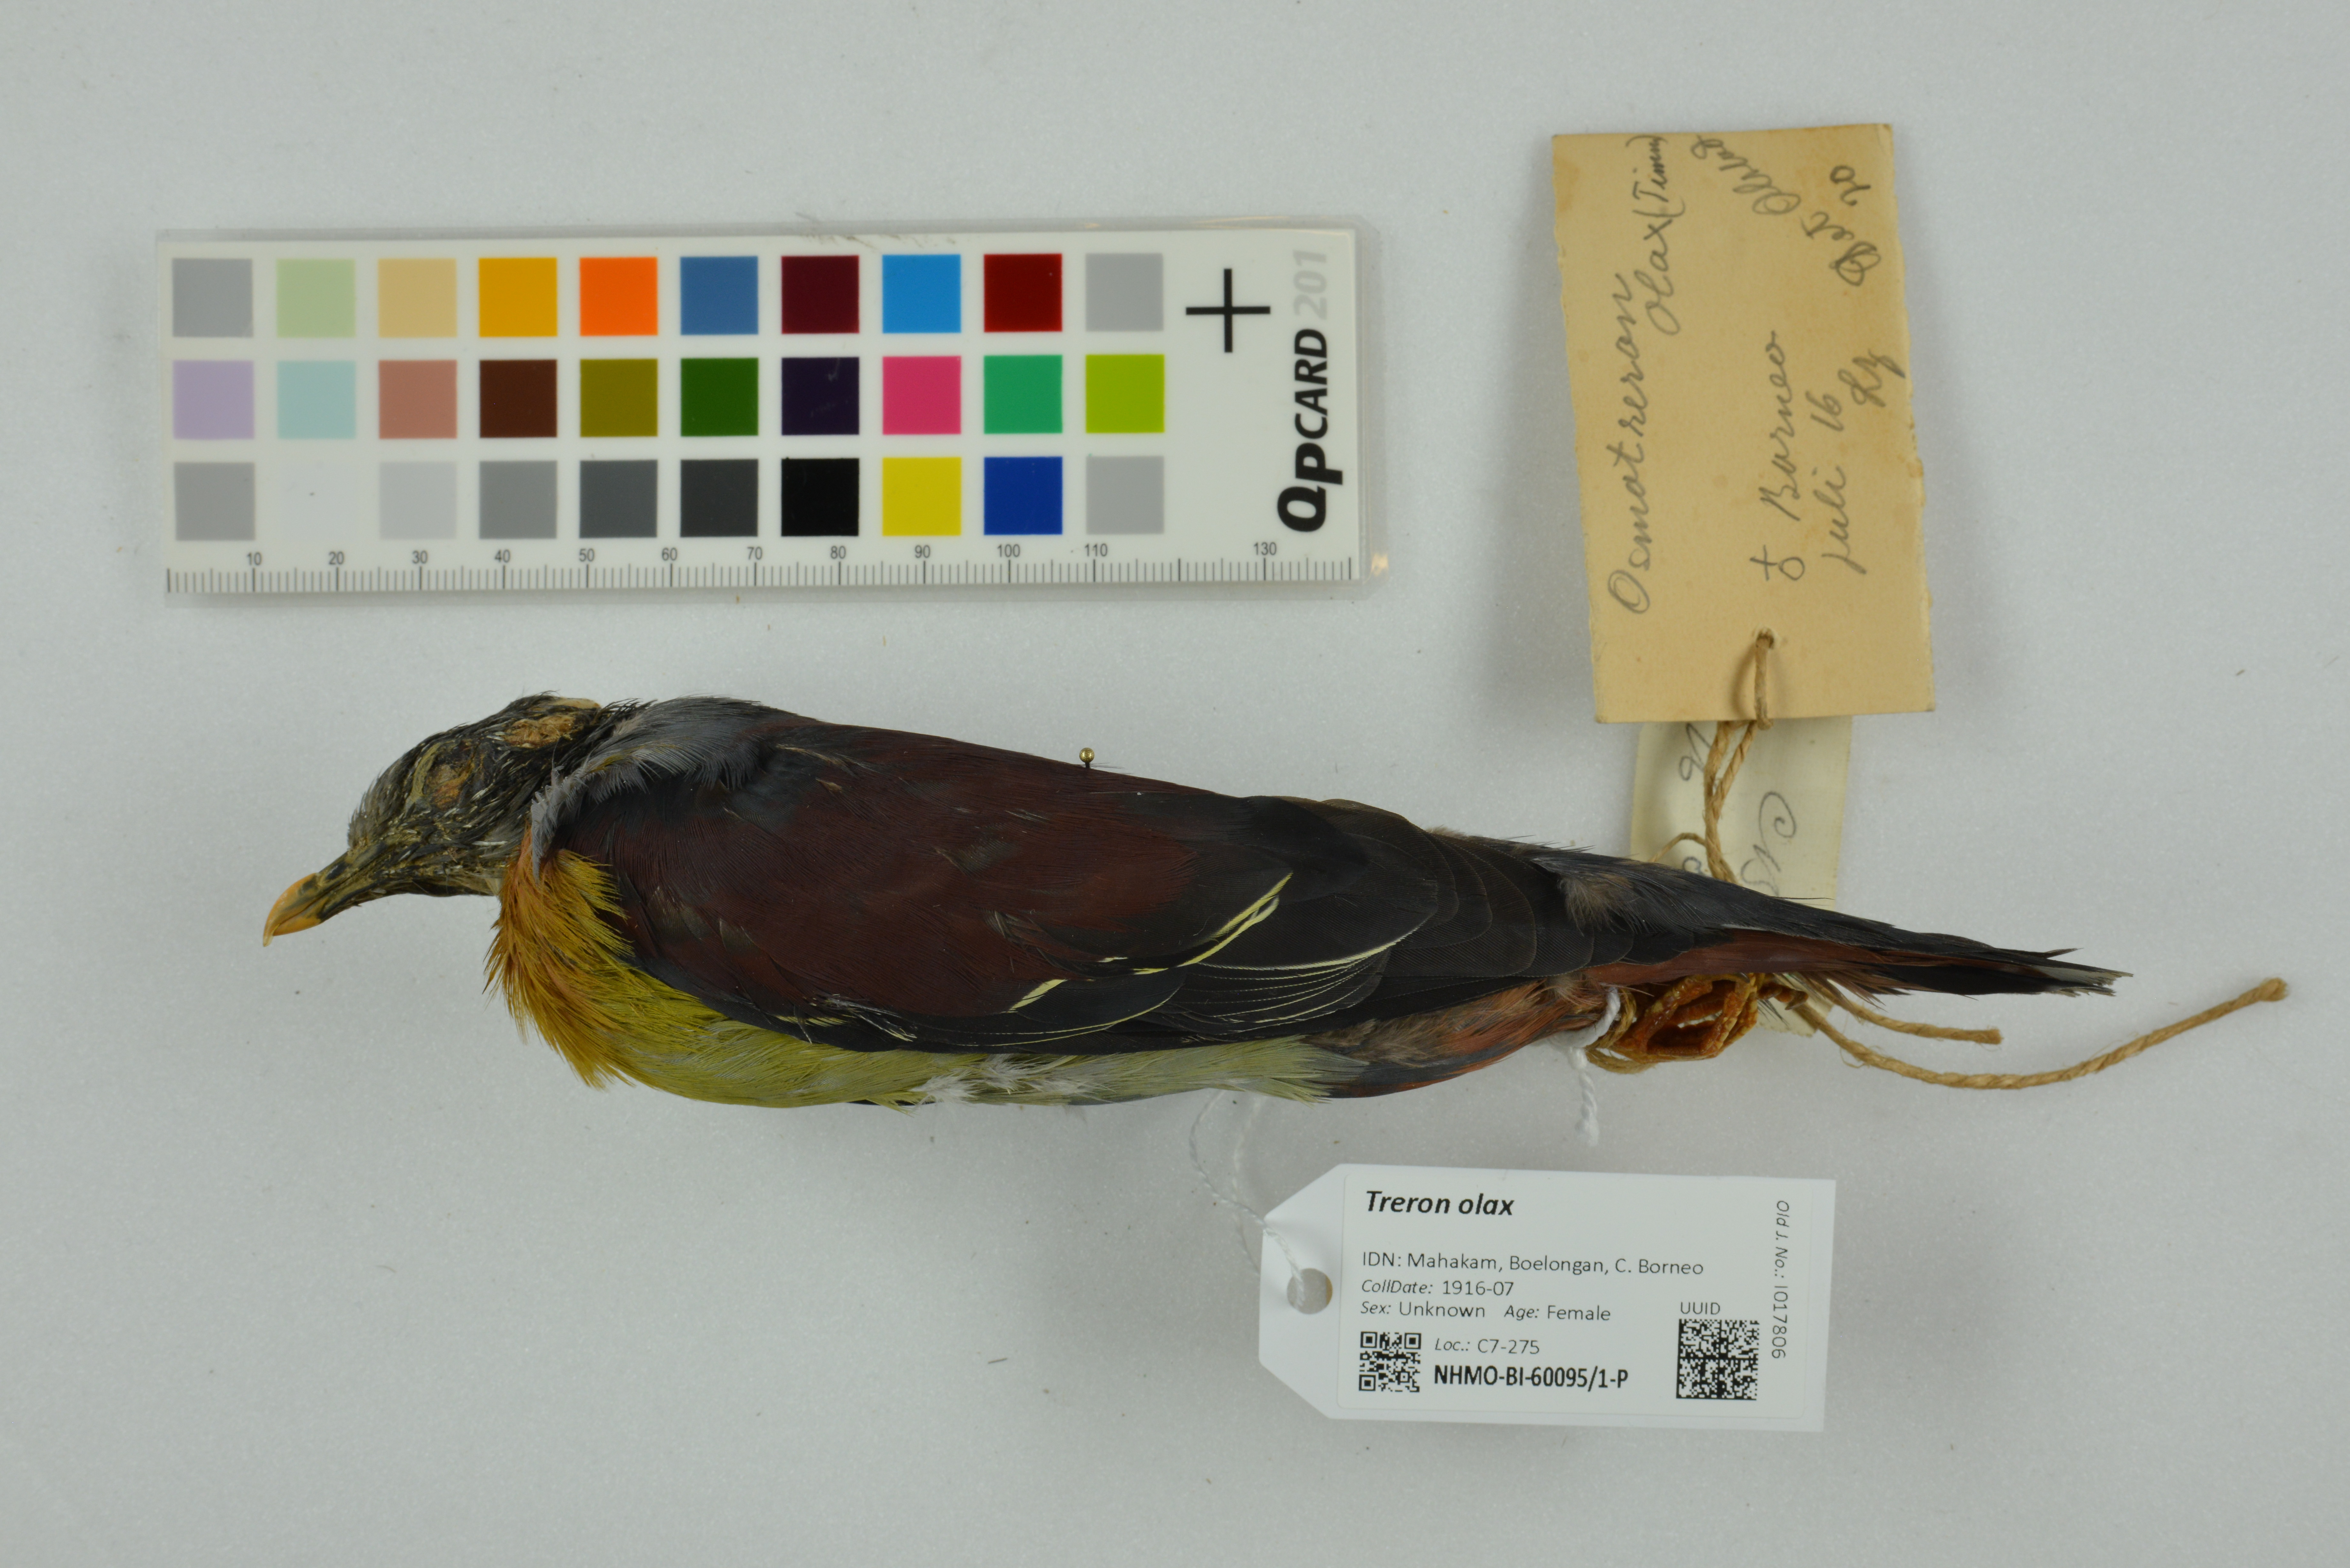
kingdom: Animalia
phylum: Chordata
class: Aves
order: Columbiformes
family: Columbidae
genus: Treron
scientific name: Treron olax
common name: Little green pigeon
